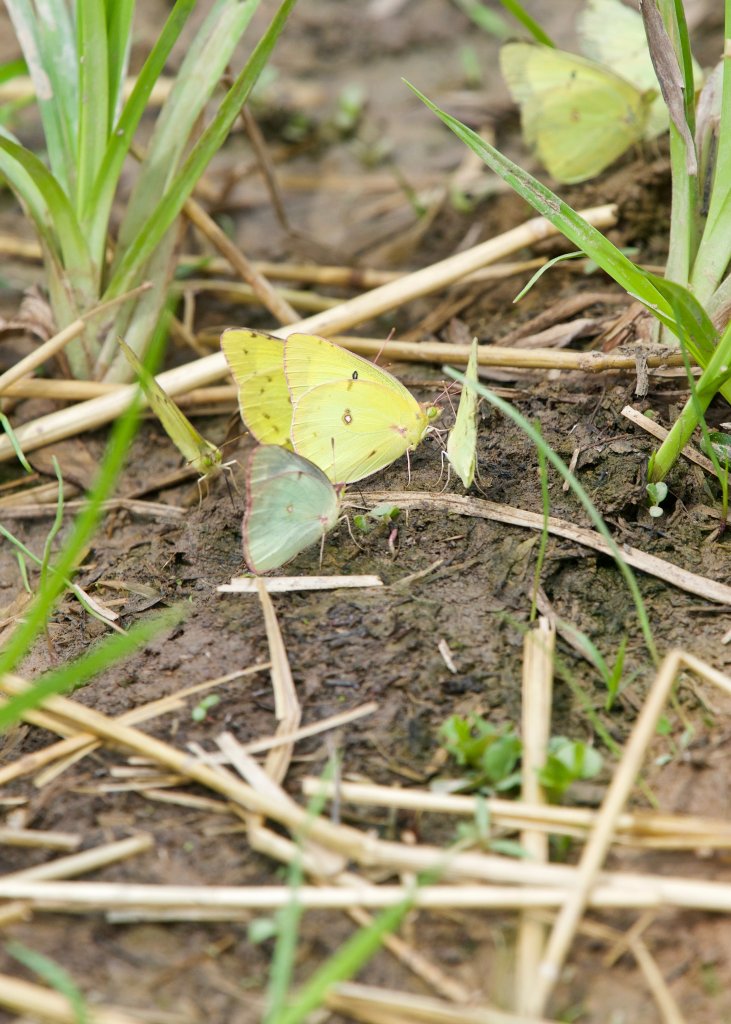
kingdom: Animalia
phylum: Arthropoda
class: Insecta
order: Lepidoptera
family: Pieridae
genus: Colias
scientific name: Colias eurytheme
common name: Orange Sulphur
